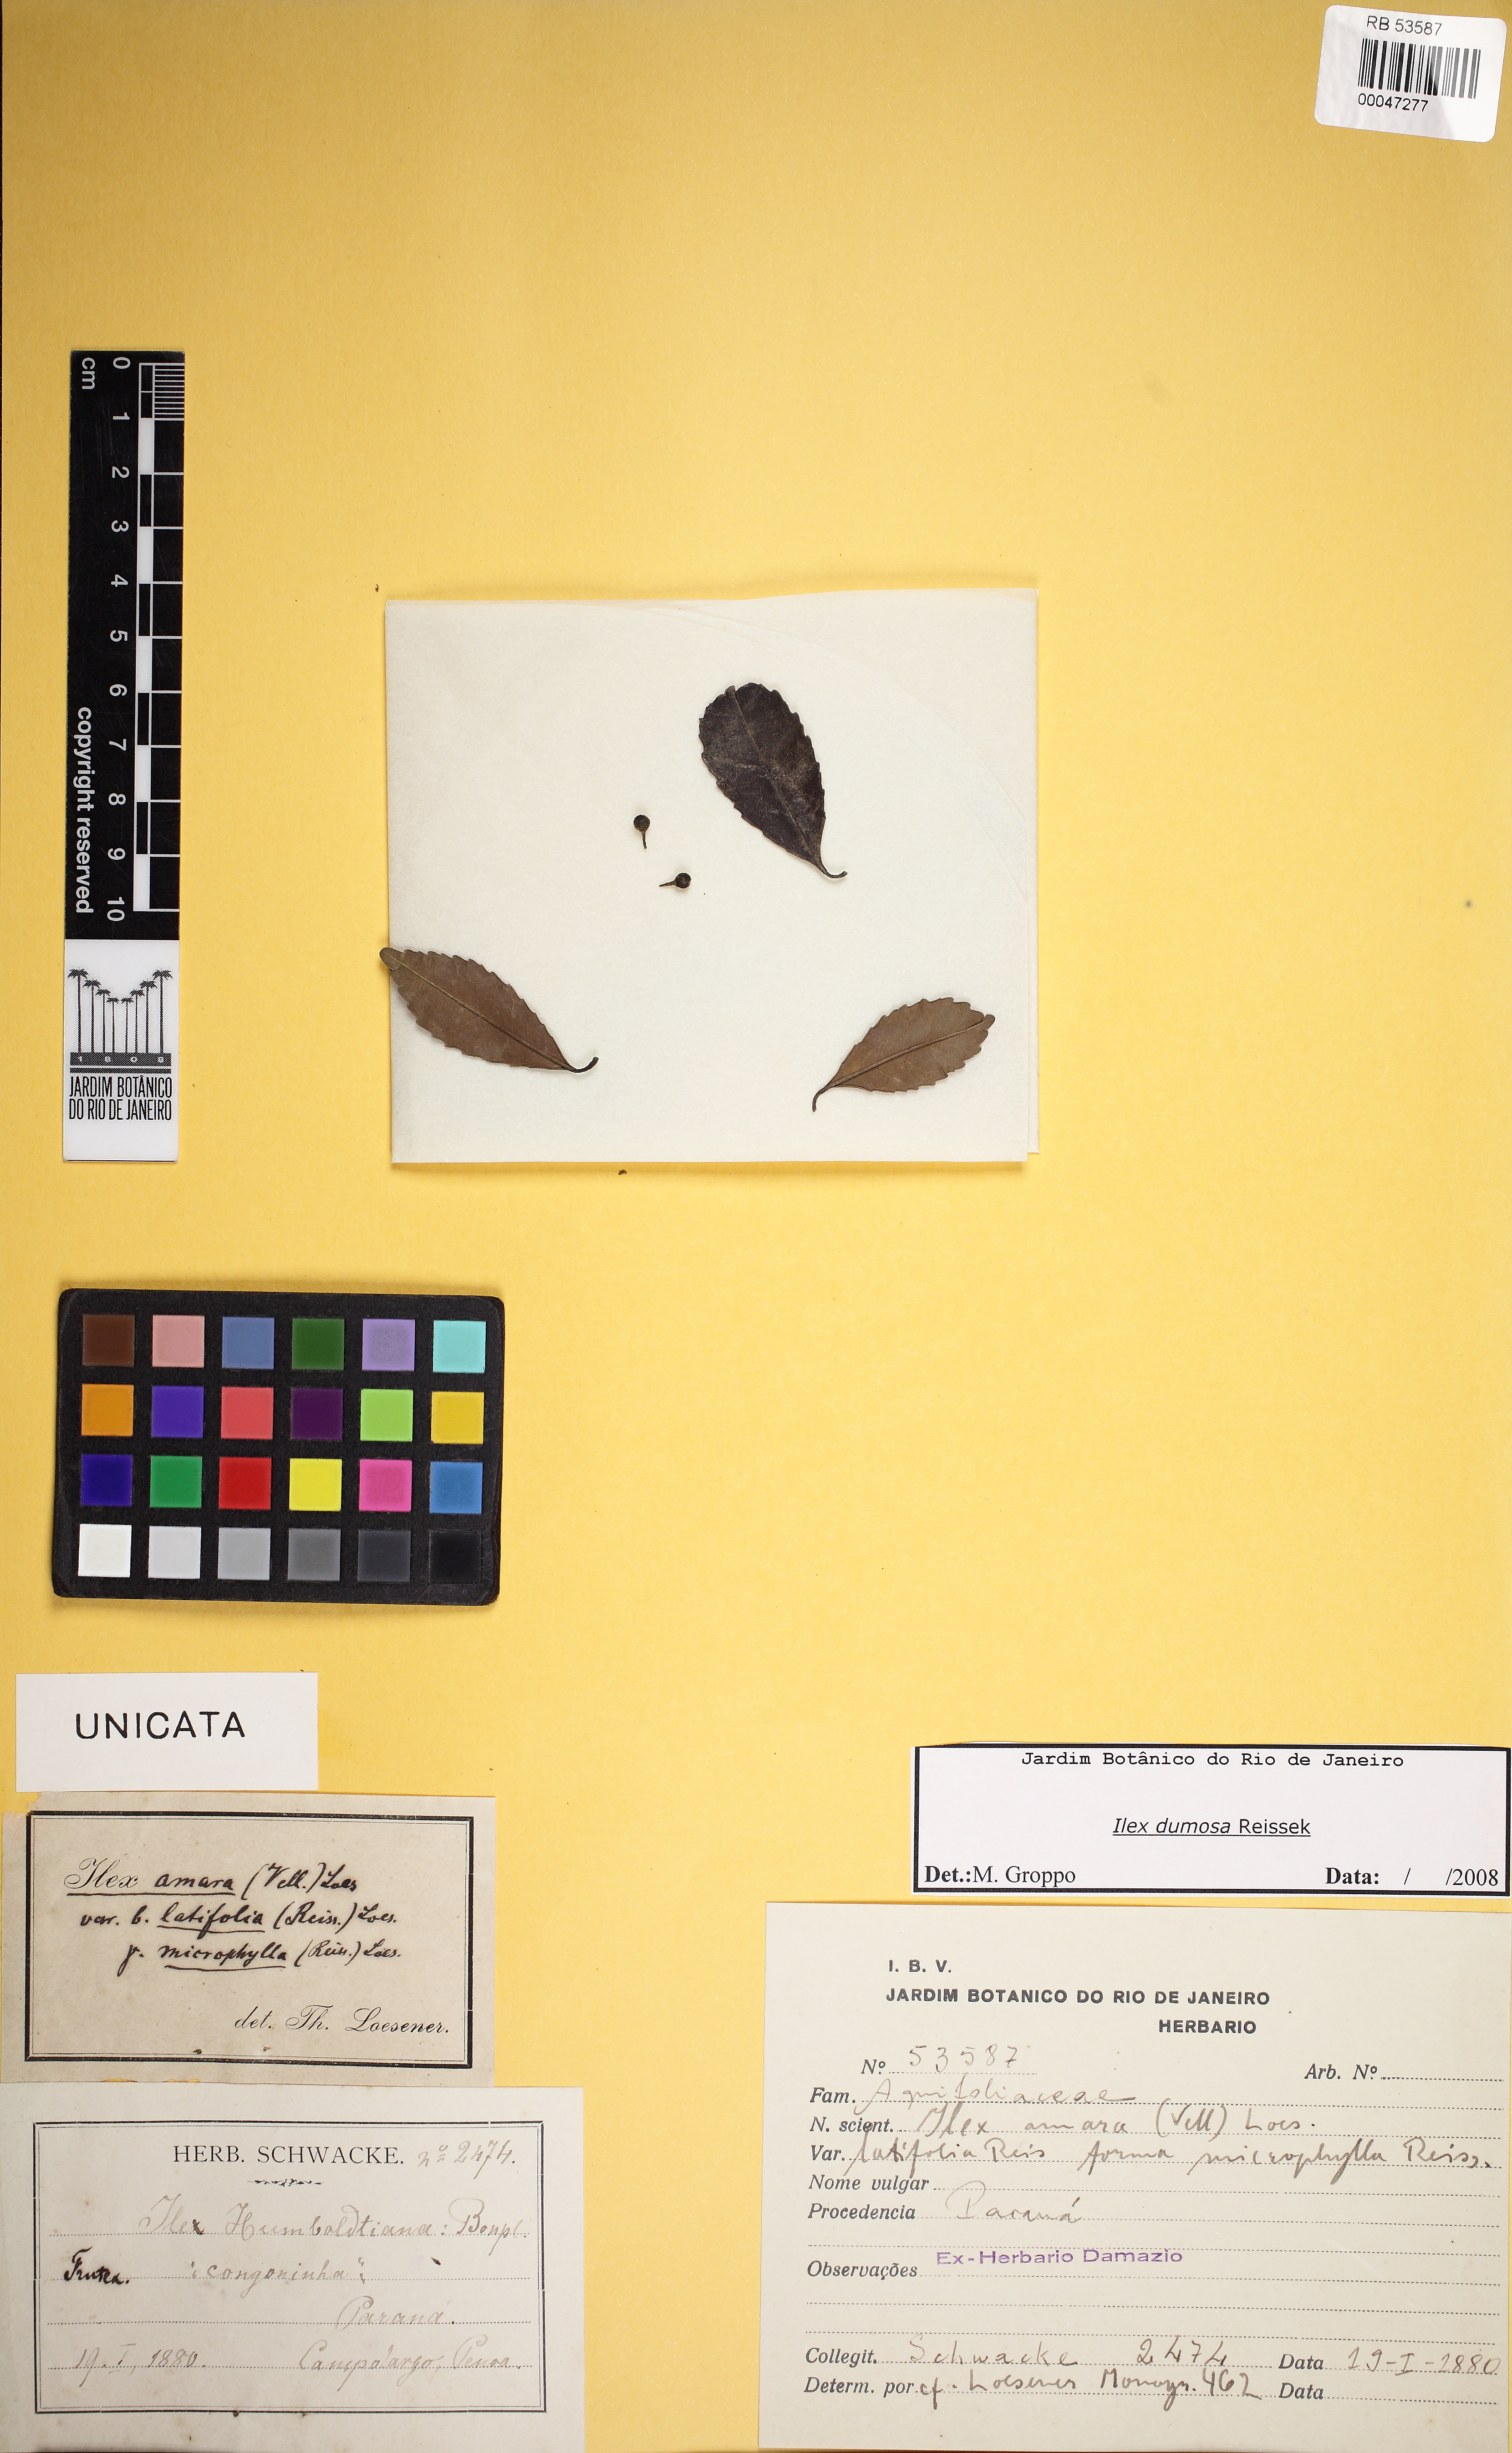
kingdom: Plantae
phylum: Tracheophyta
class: Magnoliopsida
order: Aquifoliales
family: Aquifoliaceae
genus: Ilex
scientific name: Ilex dumosa
